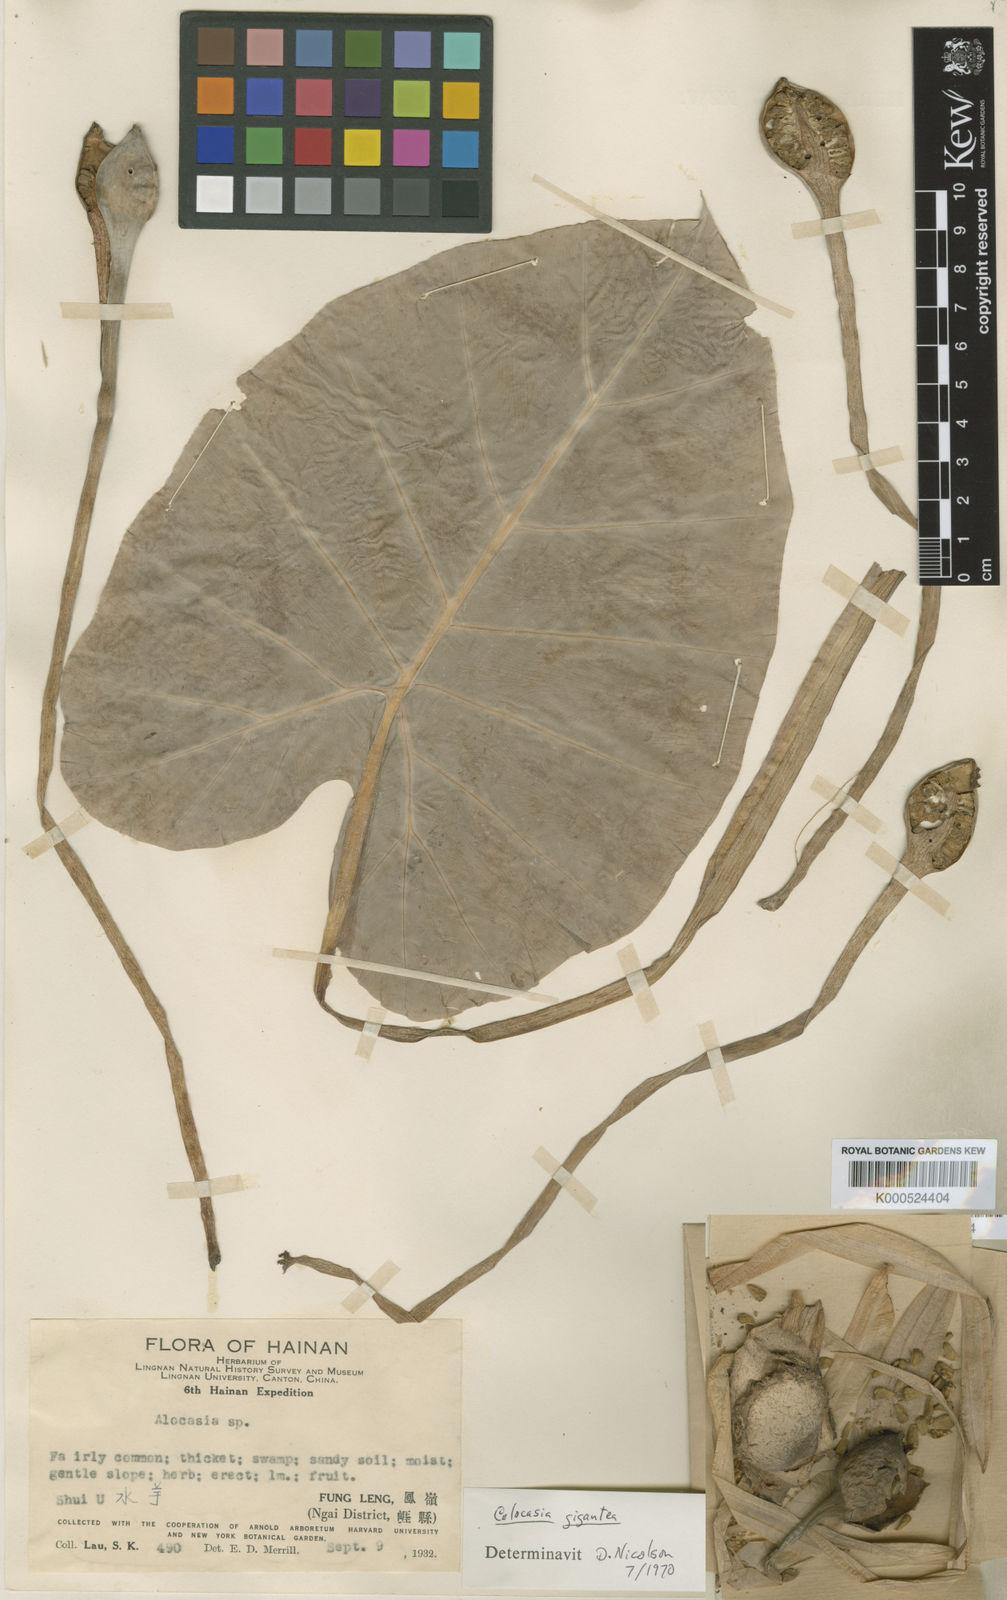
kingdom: Plantae
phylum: Tracheophyta
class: Liliopsida
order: Alismatales
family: Araceae
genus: Leucocasia
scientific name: Leucocasia gigantea
